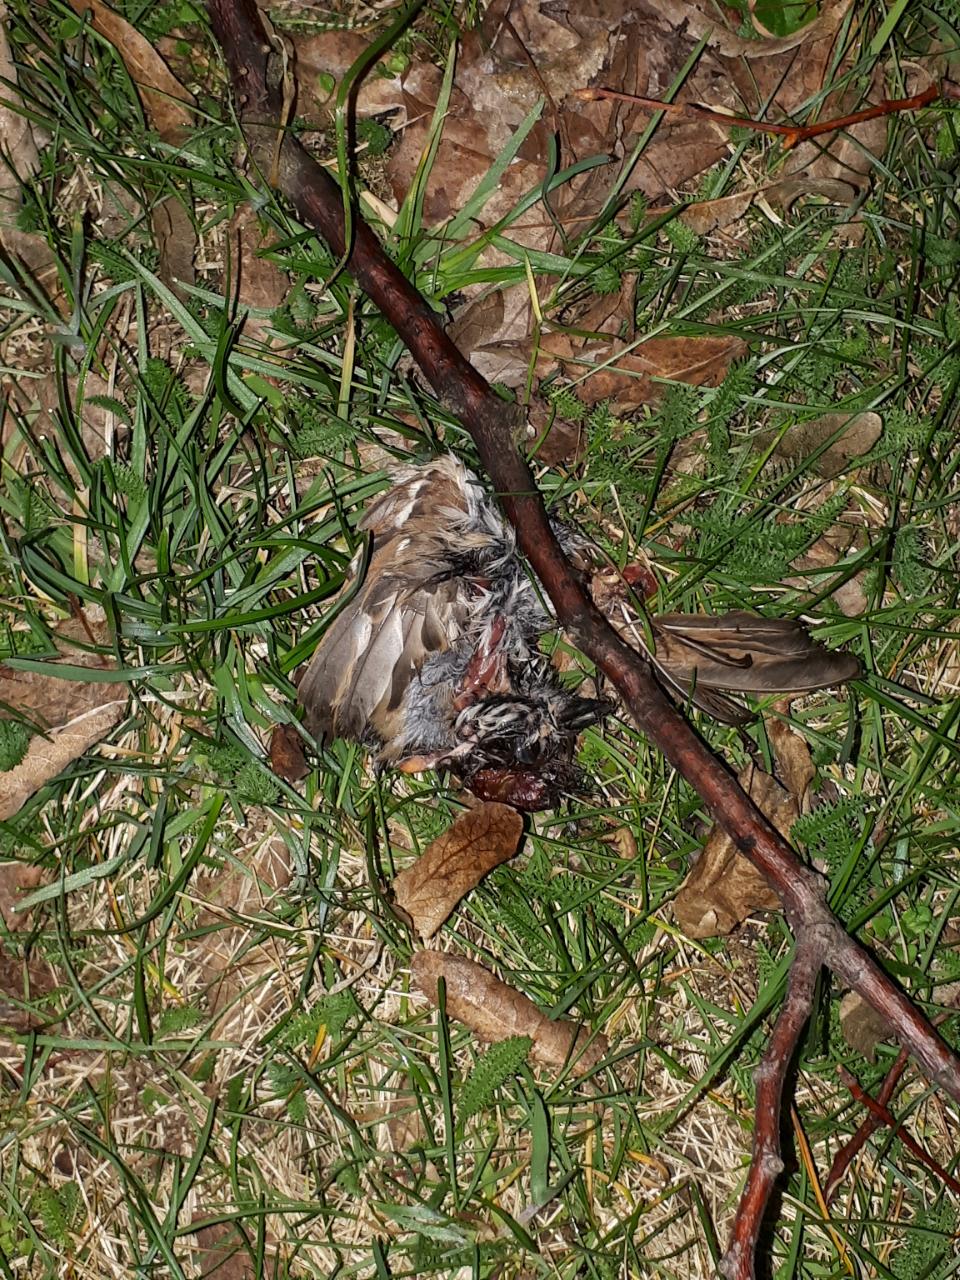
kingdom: Animalia
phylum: Chordata
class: Aves
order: Passeriformes
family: Passeridae
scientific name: Passeridae
